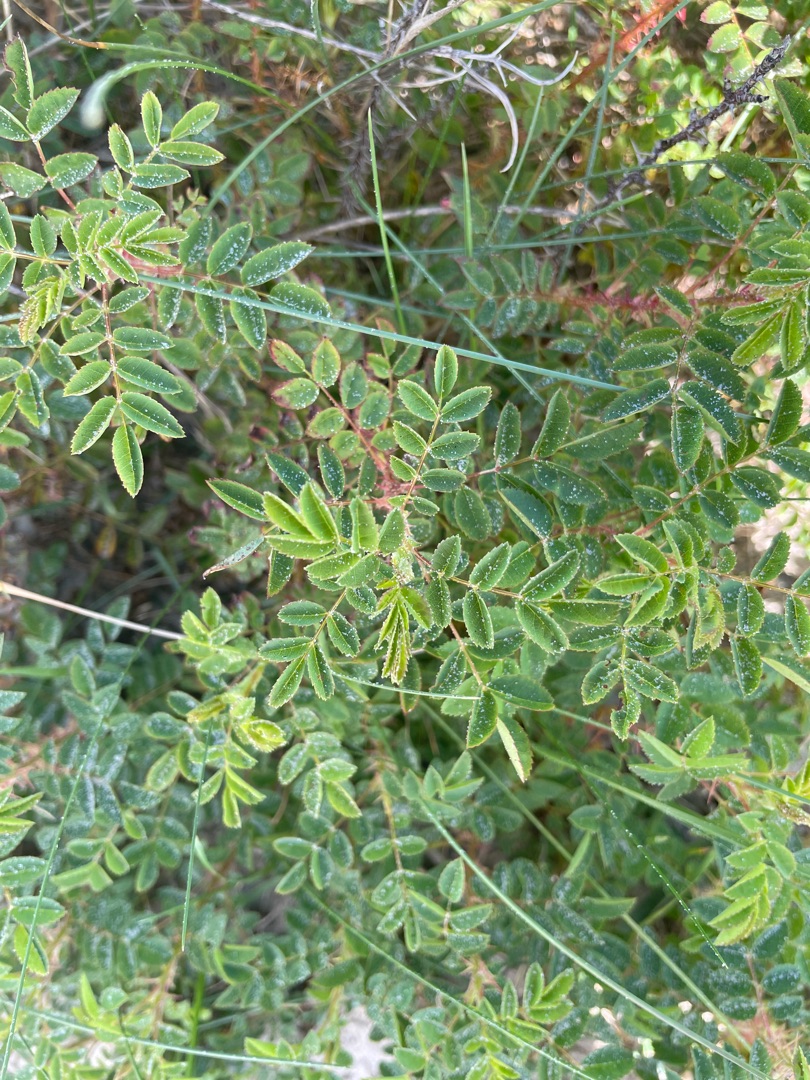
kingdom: Plantae
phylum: Tracheophyta
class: Magnoliopsida
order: Rosales
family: Rosaceae
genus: Rosa
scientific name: Rosa spinosissima
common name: Klit-rose
